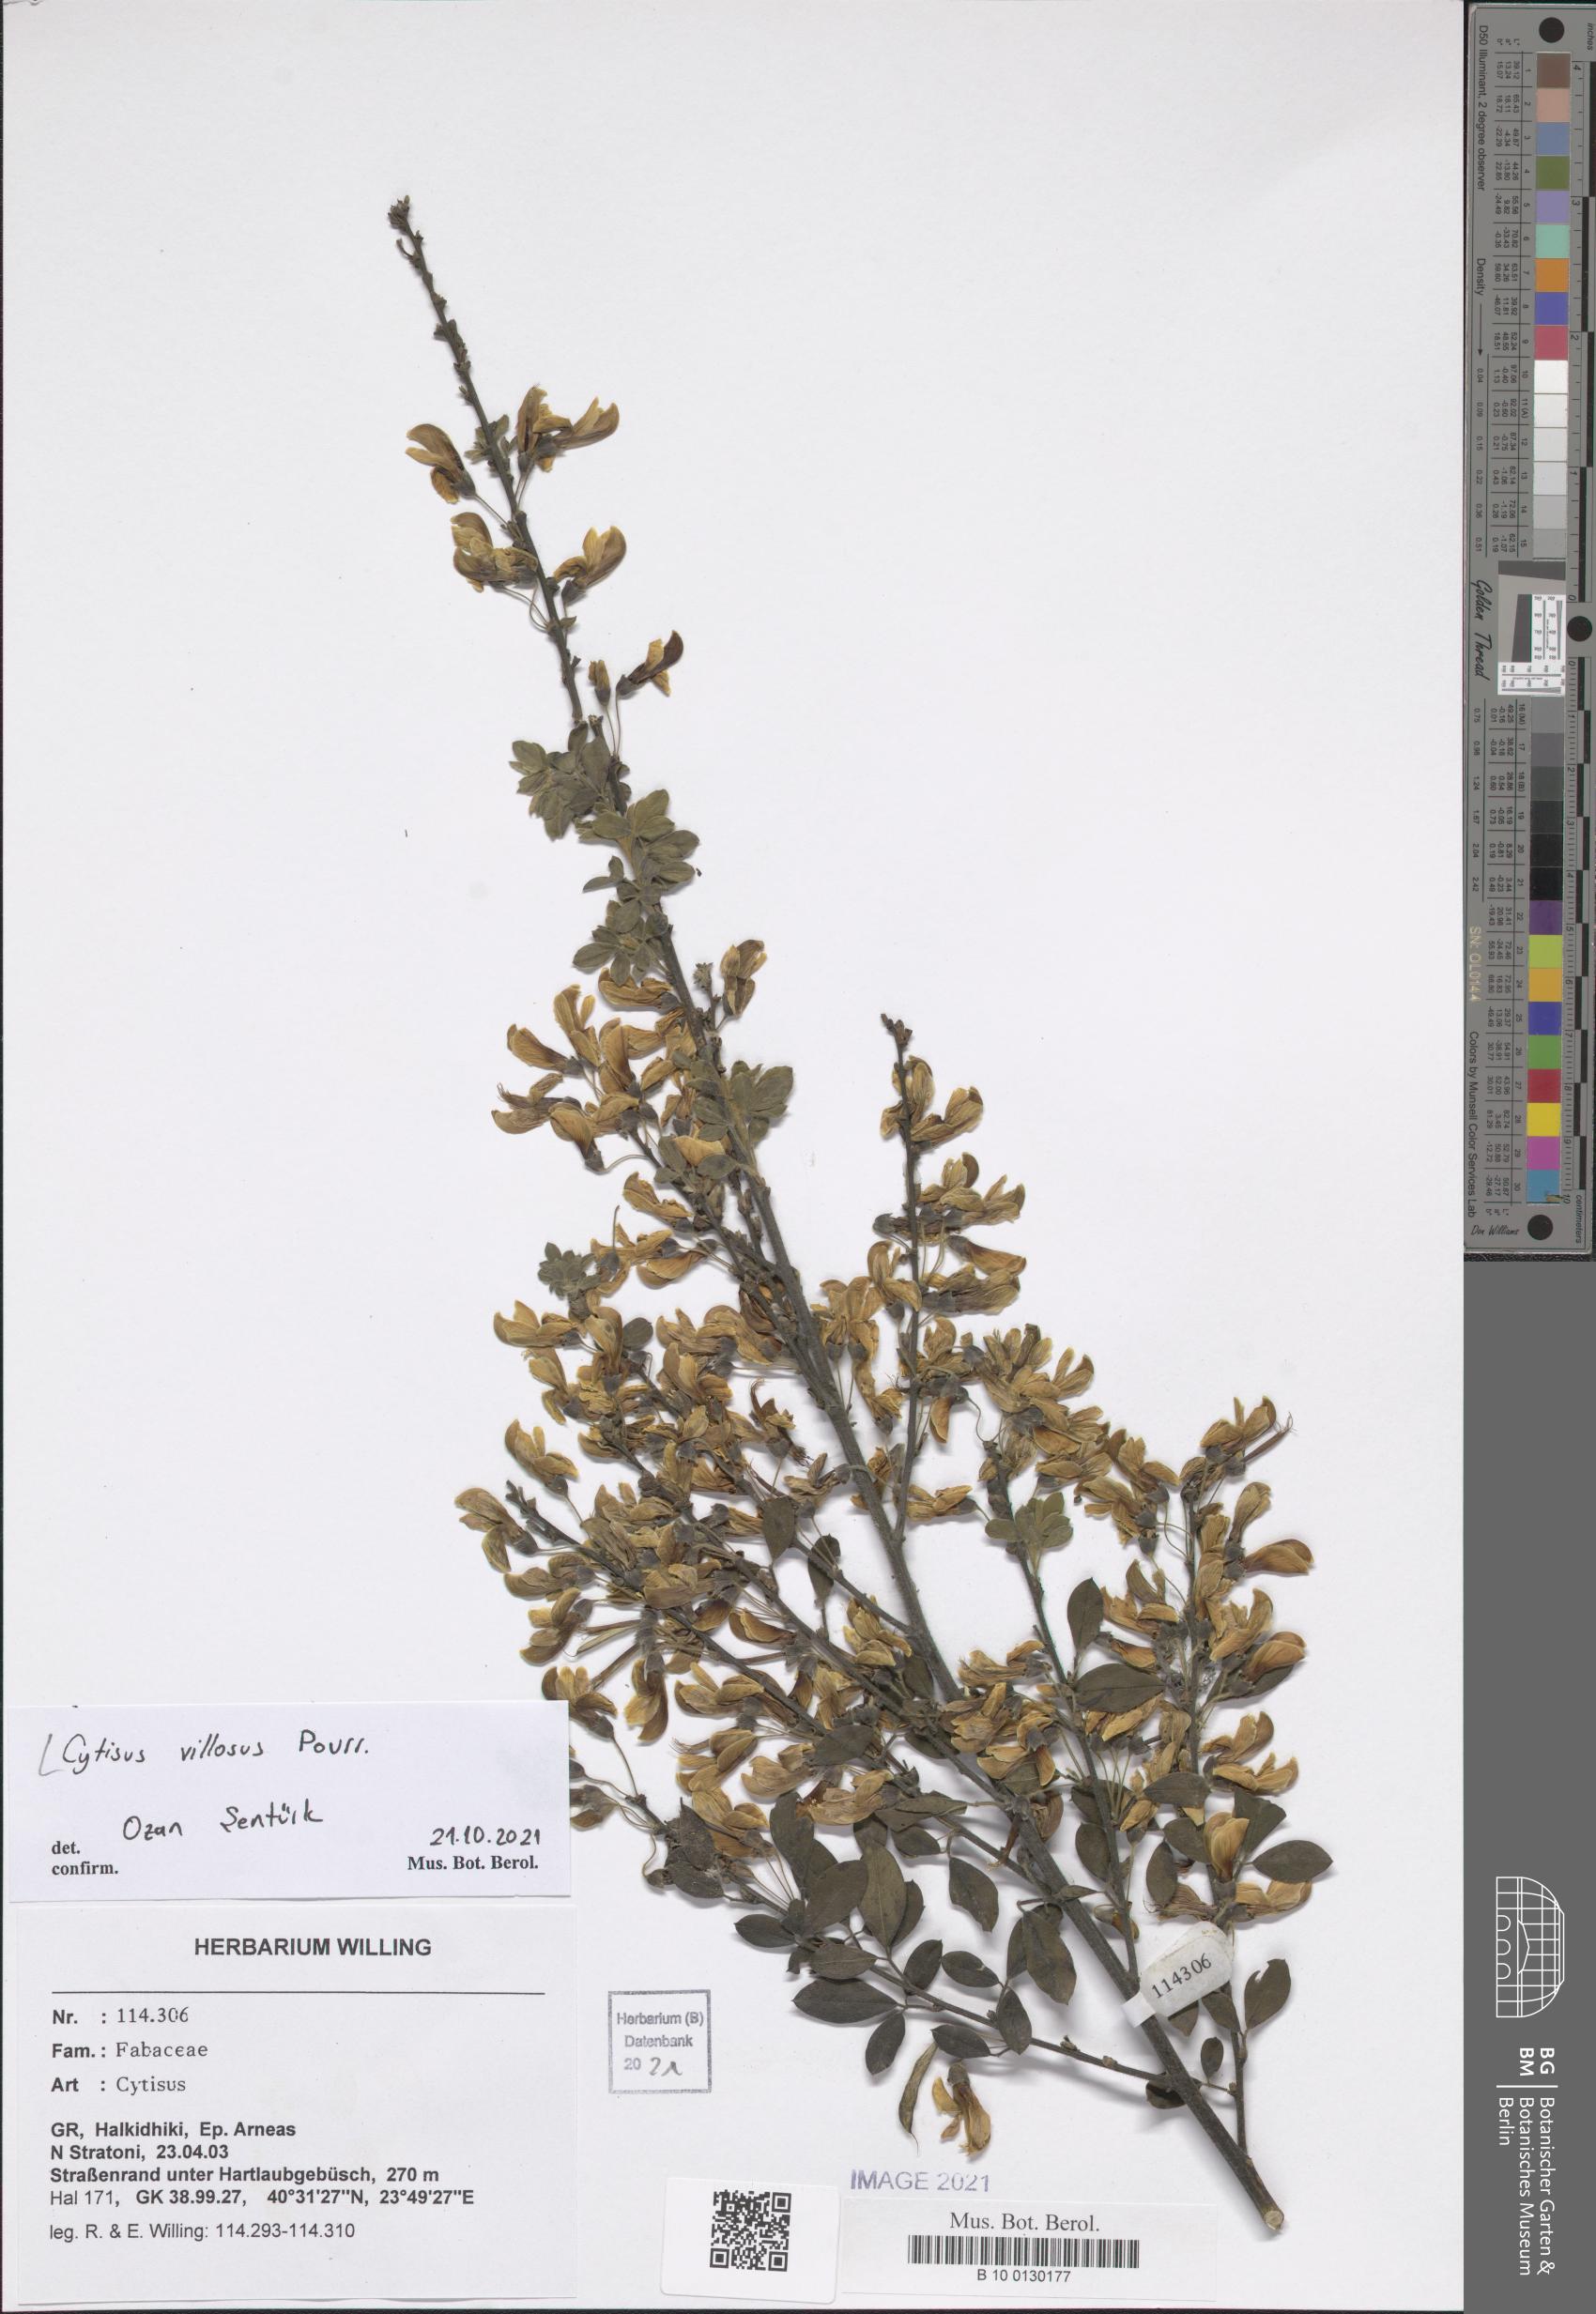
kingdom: Plantae
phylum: Tracheophyta
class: Magnoliopsida
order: Fabales
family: Fabaceae
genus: Cytisus
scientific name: Cytisus villosus
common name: Hairybroom
